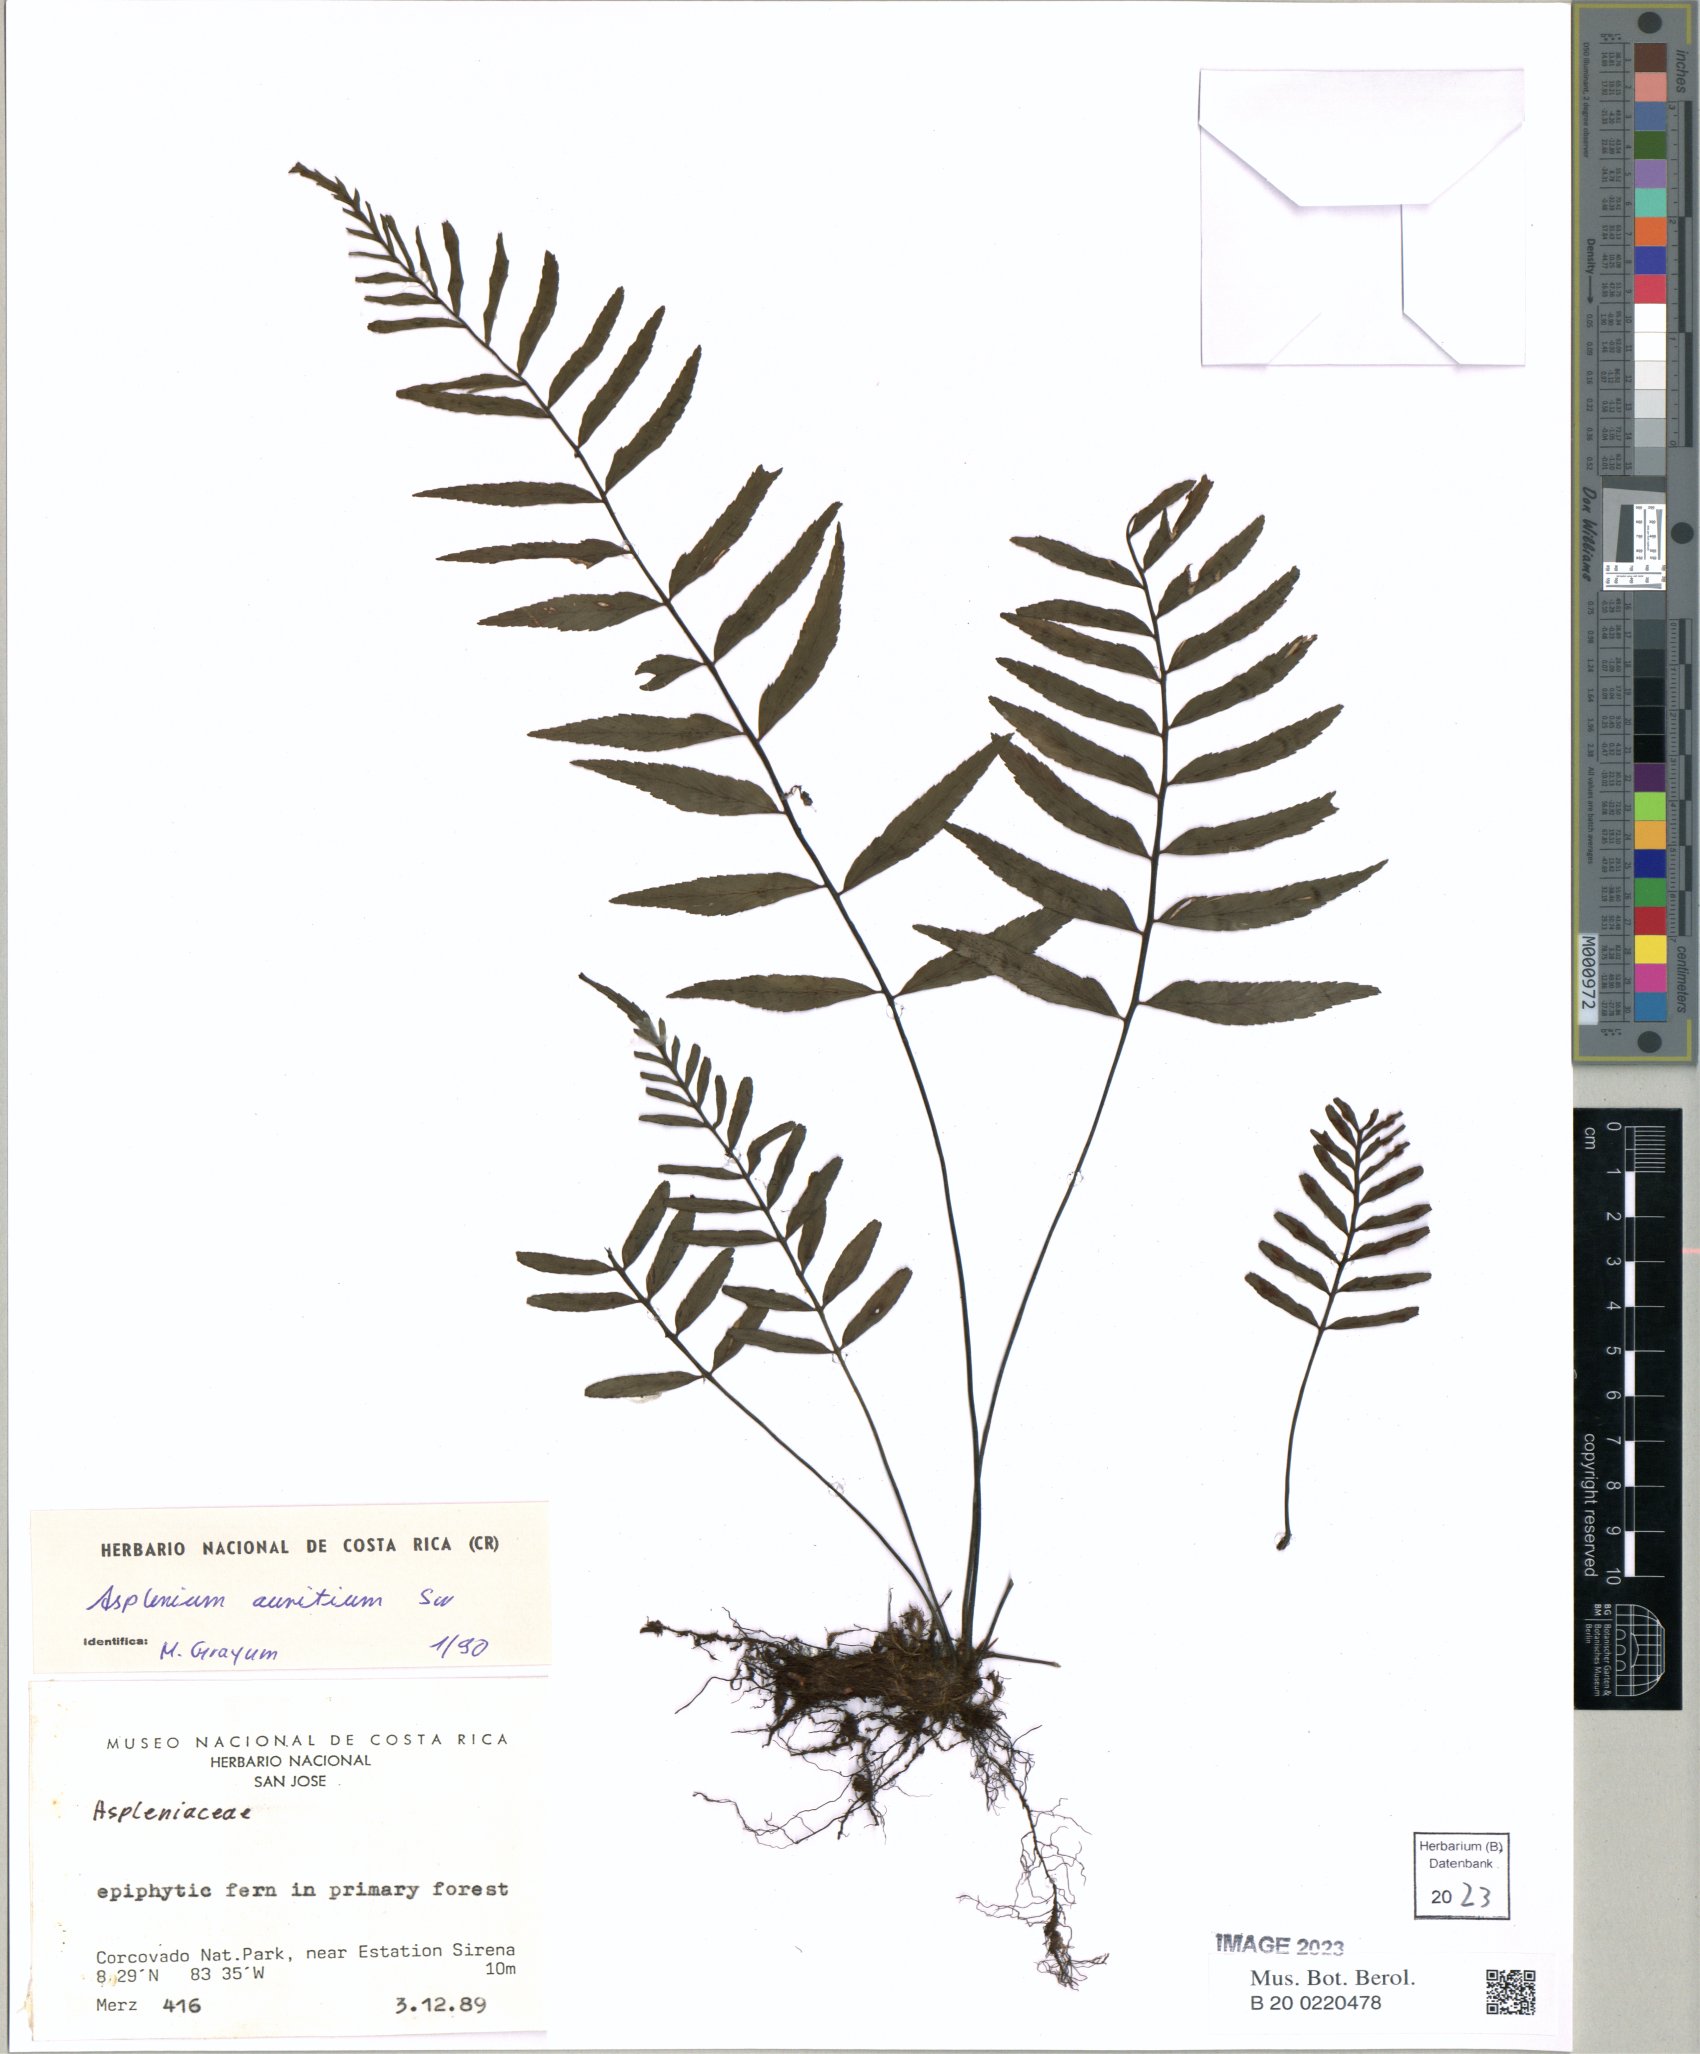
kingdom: Plantae
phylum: Tracheophyta
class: Polypodiopsida
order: Polypodiales
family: Aspleniaceae
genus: Asplenium
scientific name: Asplenium auritum
